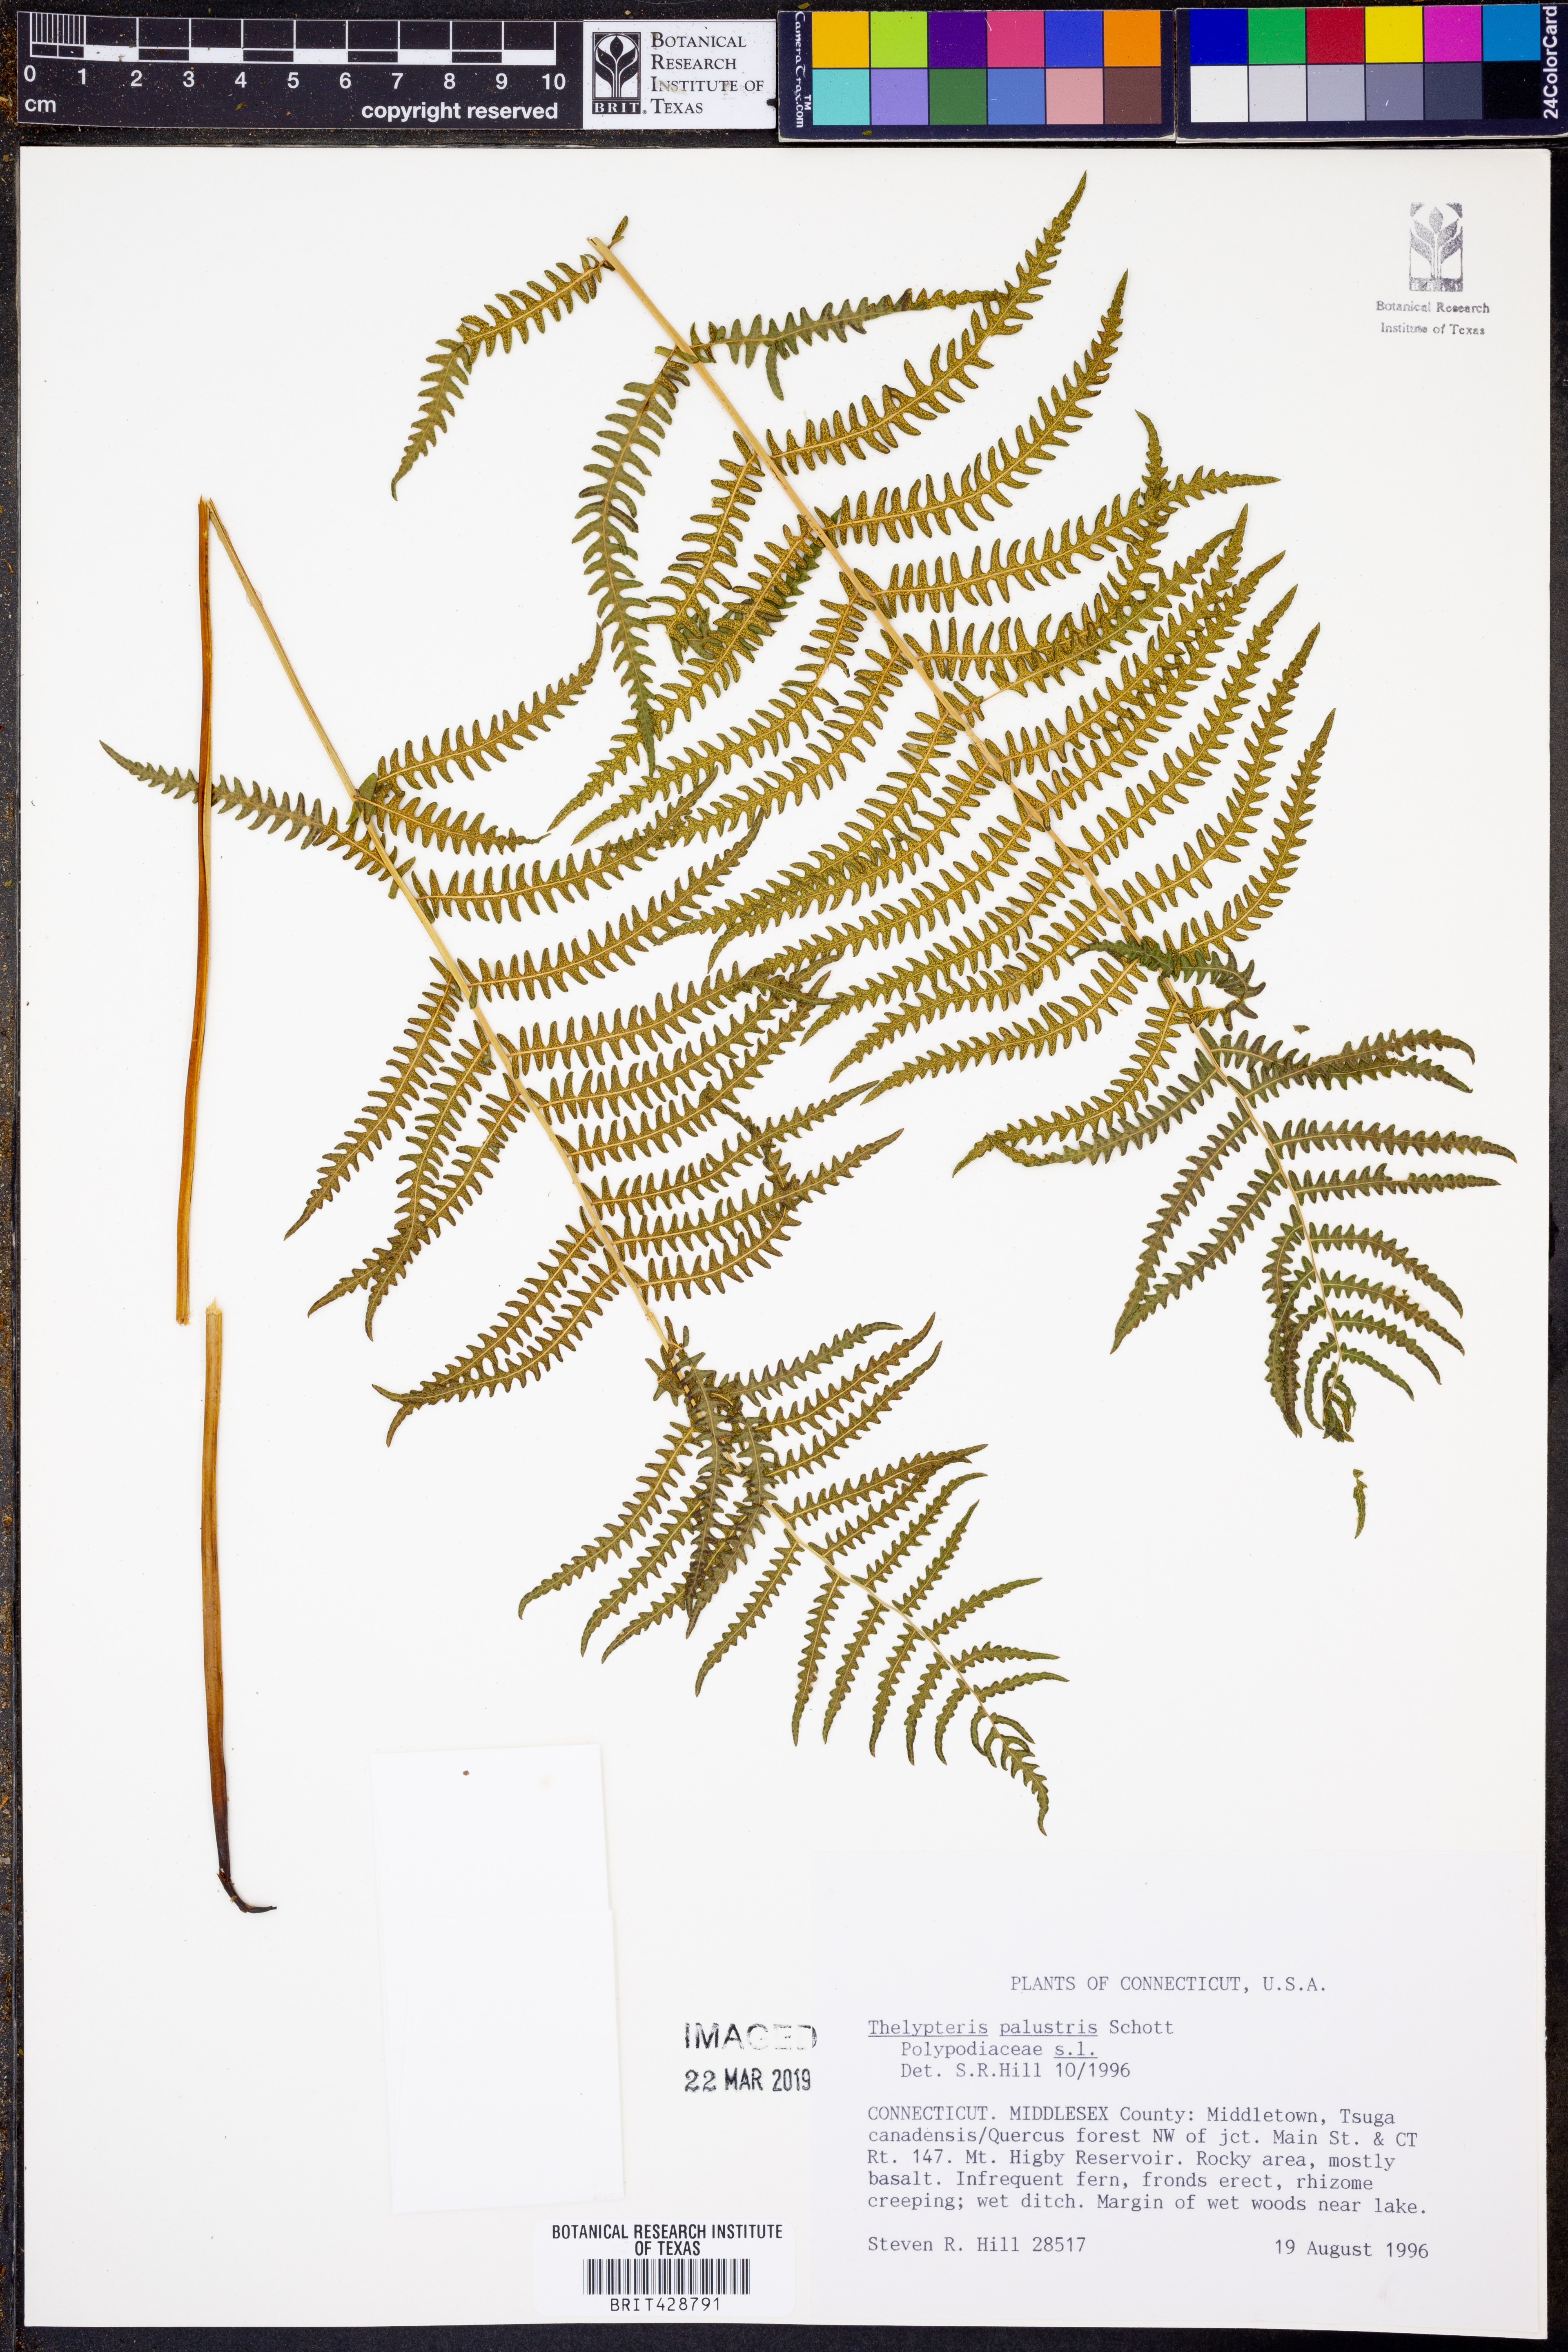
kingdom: Plantae
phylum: Tracheophyta
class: Polypodiopsida
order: Polypodiales
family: Thelypteridaceae
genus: Thelypteris
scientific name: Thelypteris palustris
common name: Marsh fern
